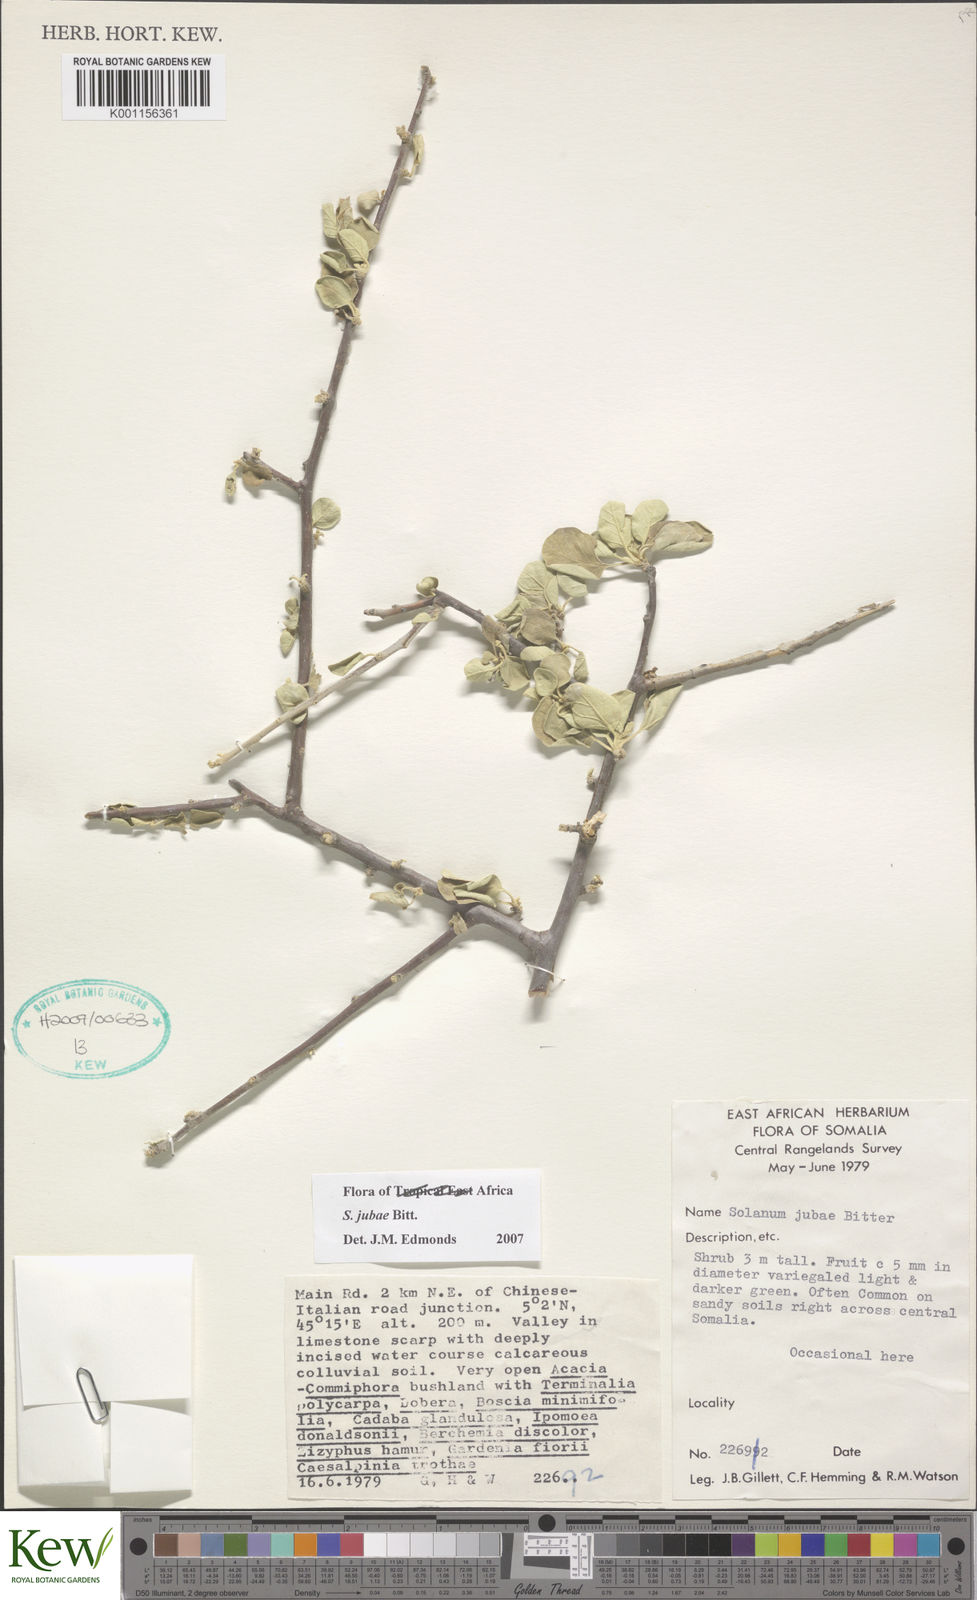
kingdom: Plantae
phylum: Tracheophyta
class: Magnoliopsida
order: Solanales
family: Solanaceae
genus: Solanum
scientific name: Solanum jubae
